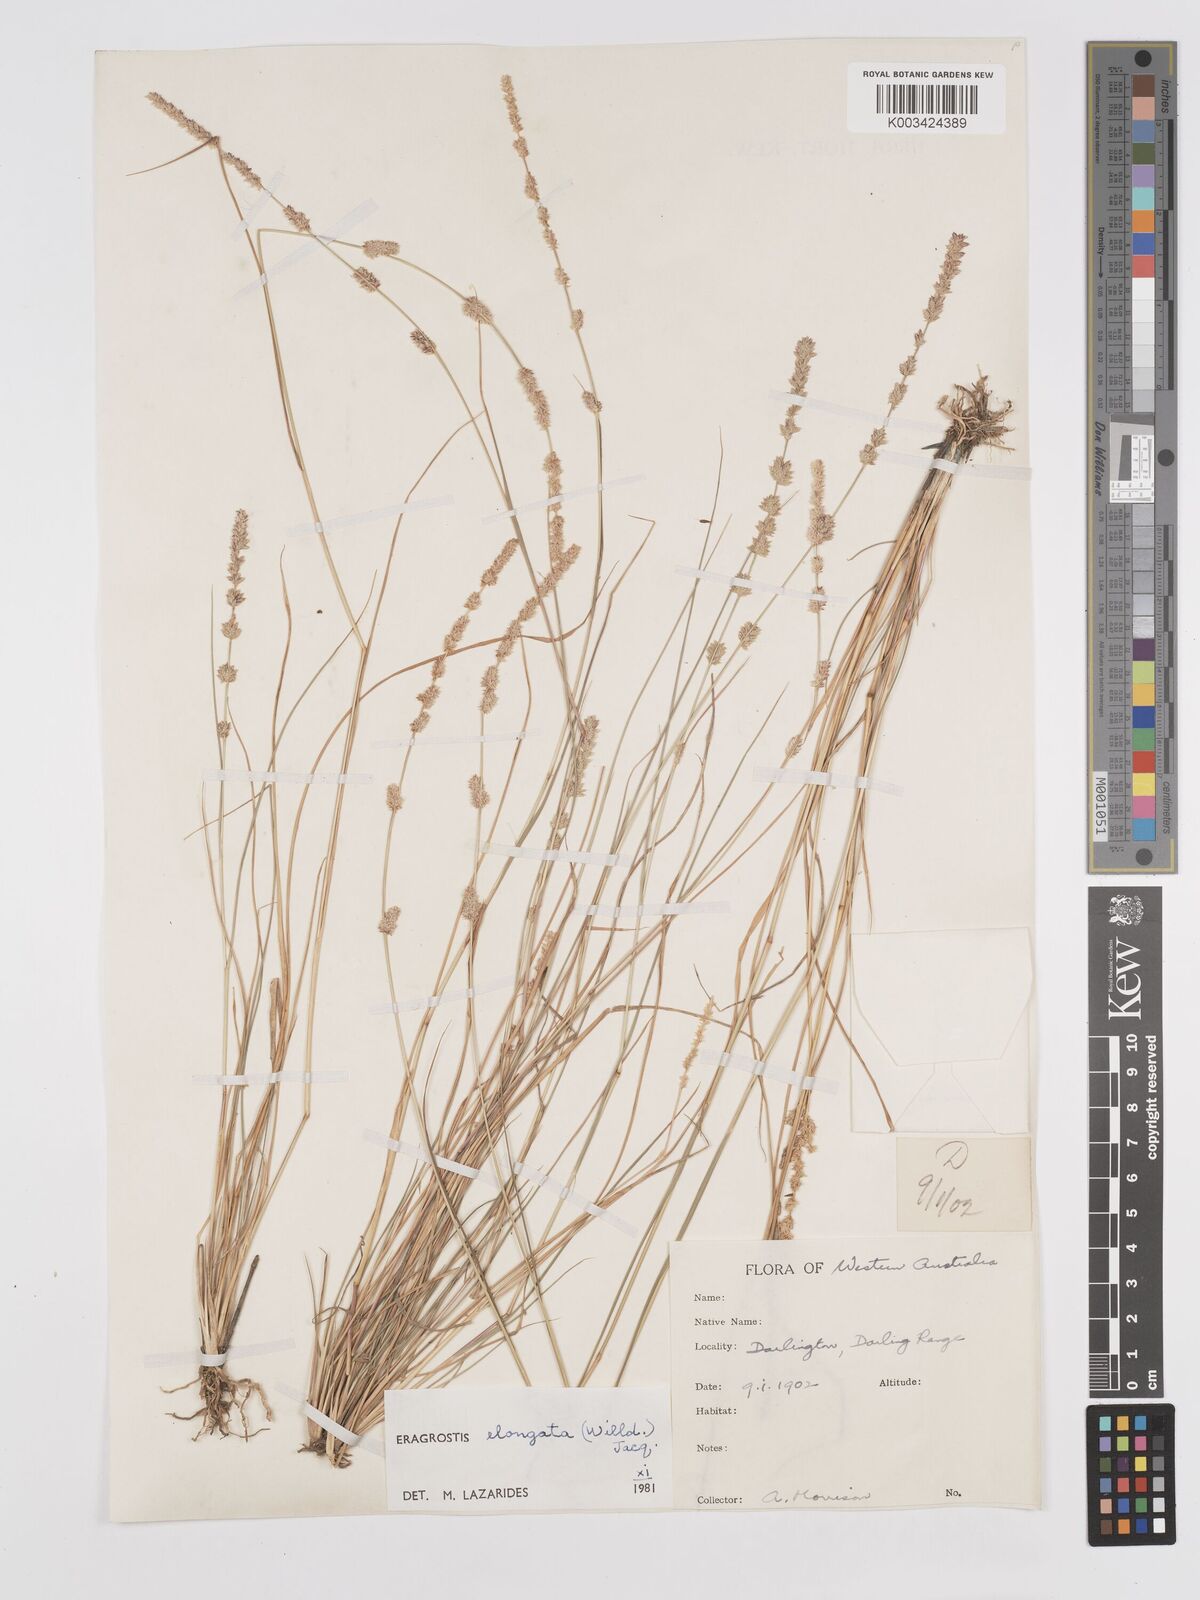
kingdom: Plantae
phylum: Tracheophyta
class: Liliopsida
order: Poales
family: Poaceae
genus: Eragrostis
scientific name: Eragrostis elongata
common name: Long lovegrass
